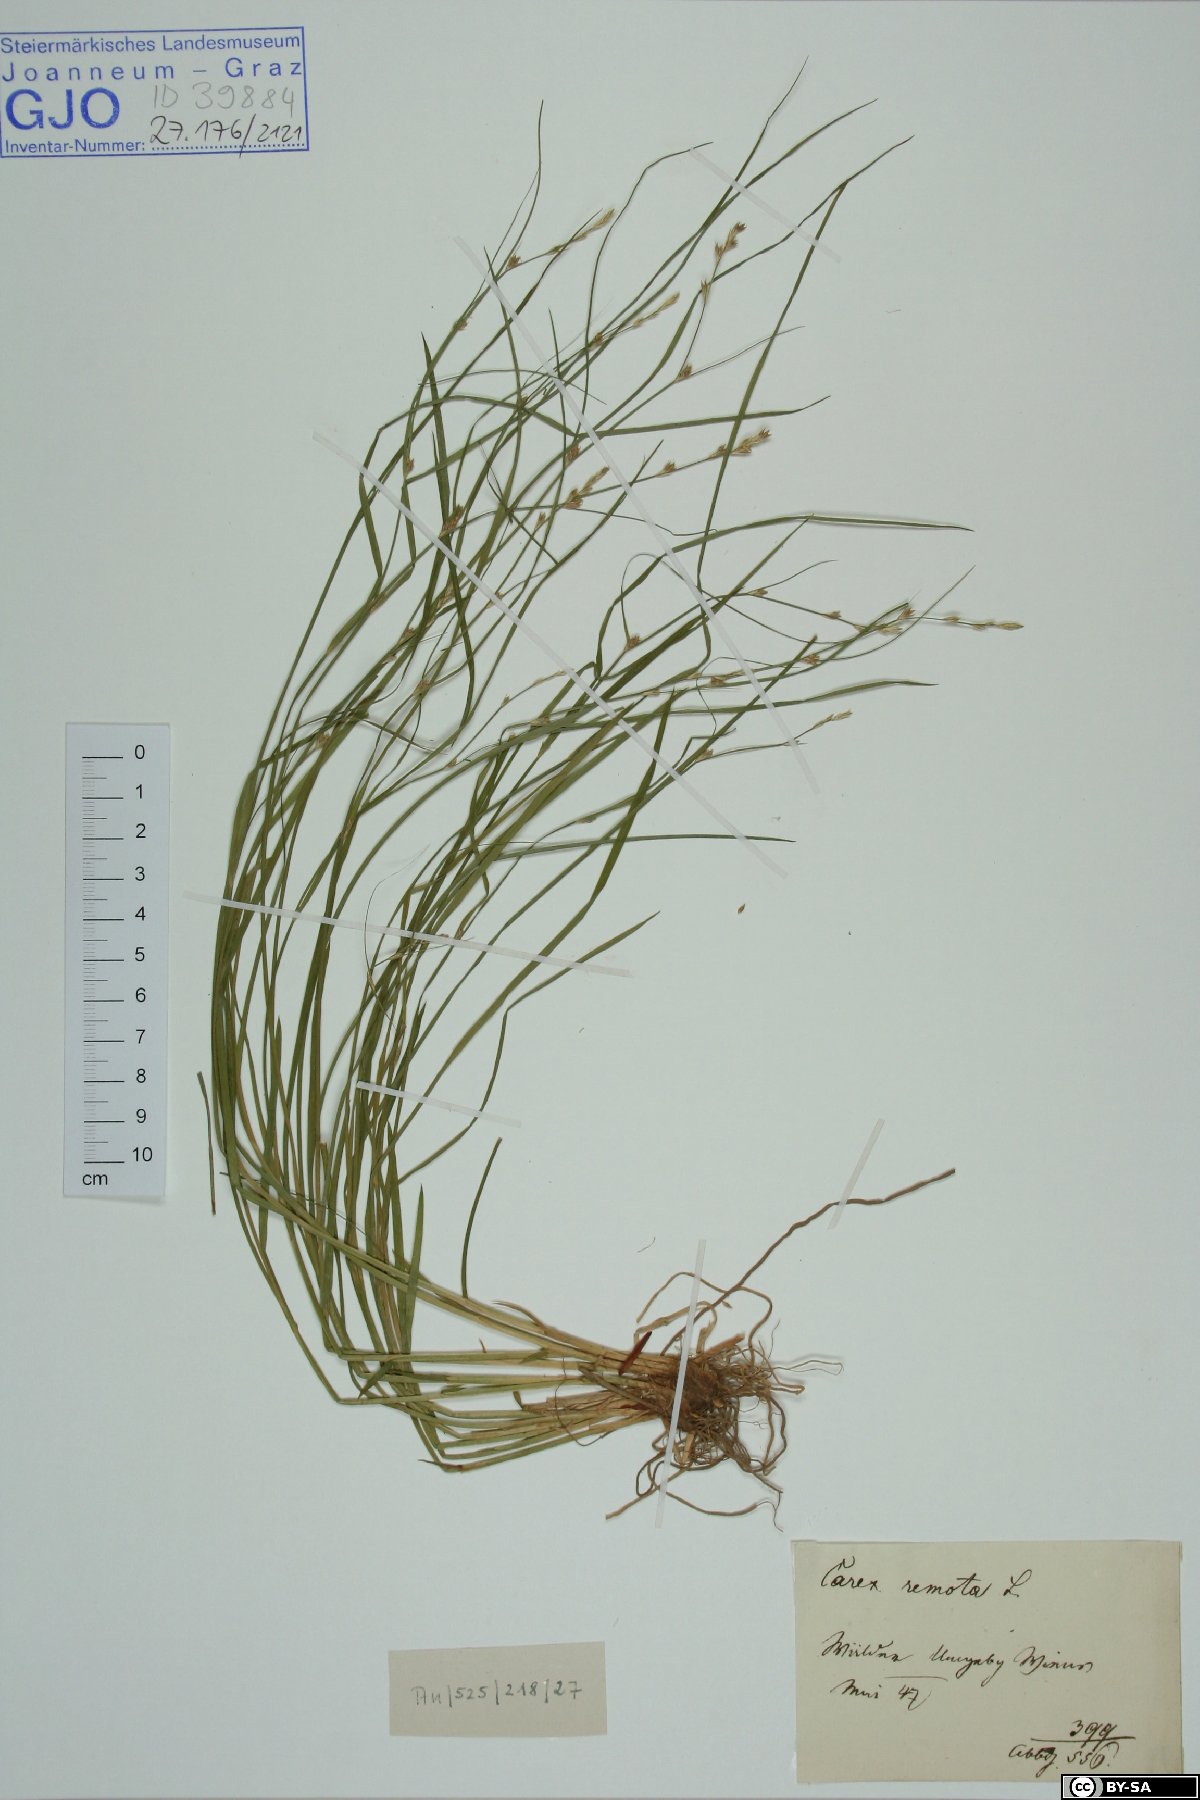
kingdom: Plantae
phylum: Tracheophyta
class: Liliopsida
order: Poales
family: Cyperaceae
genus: Carex
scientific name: Carex remota
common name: Remote sedge
